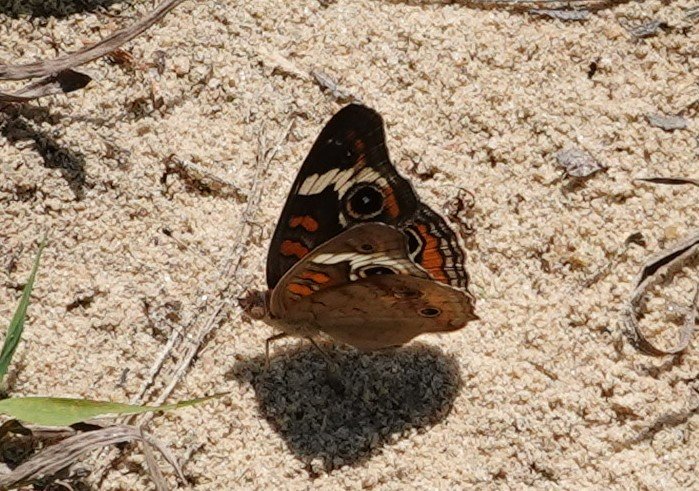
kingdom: Animalia
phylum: Arthropoda
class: Insecta
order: Lepidoptera
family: Nymphalidae
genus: Junonia
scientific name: Junonia coenia
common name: Common Buckeye
